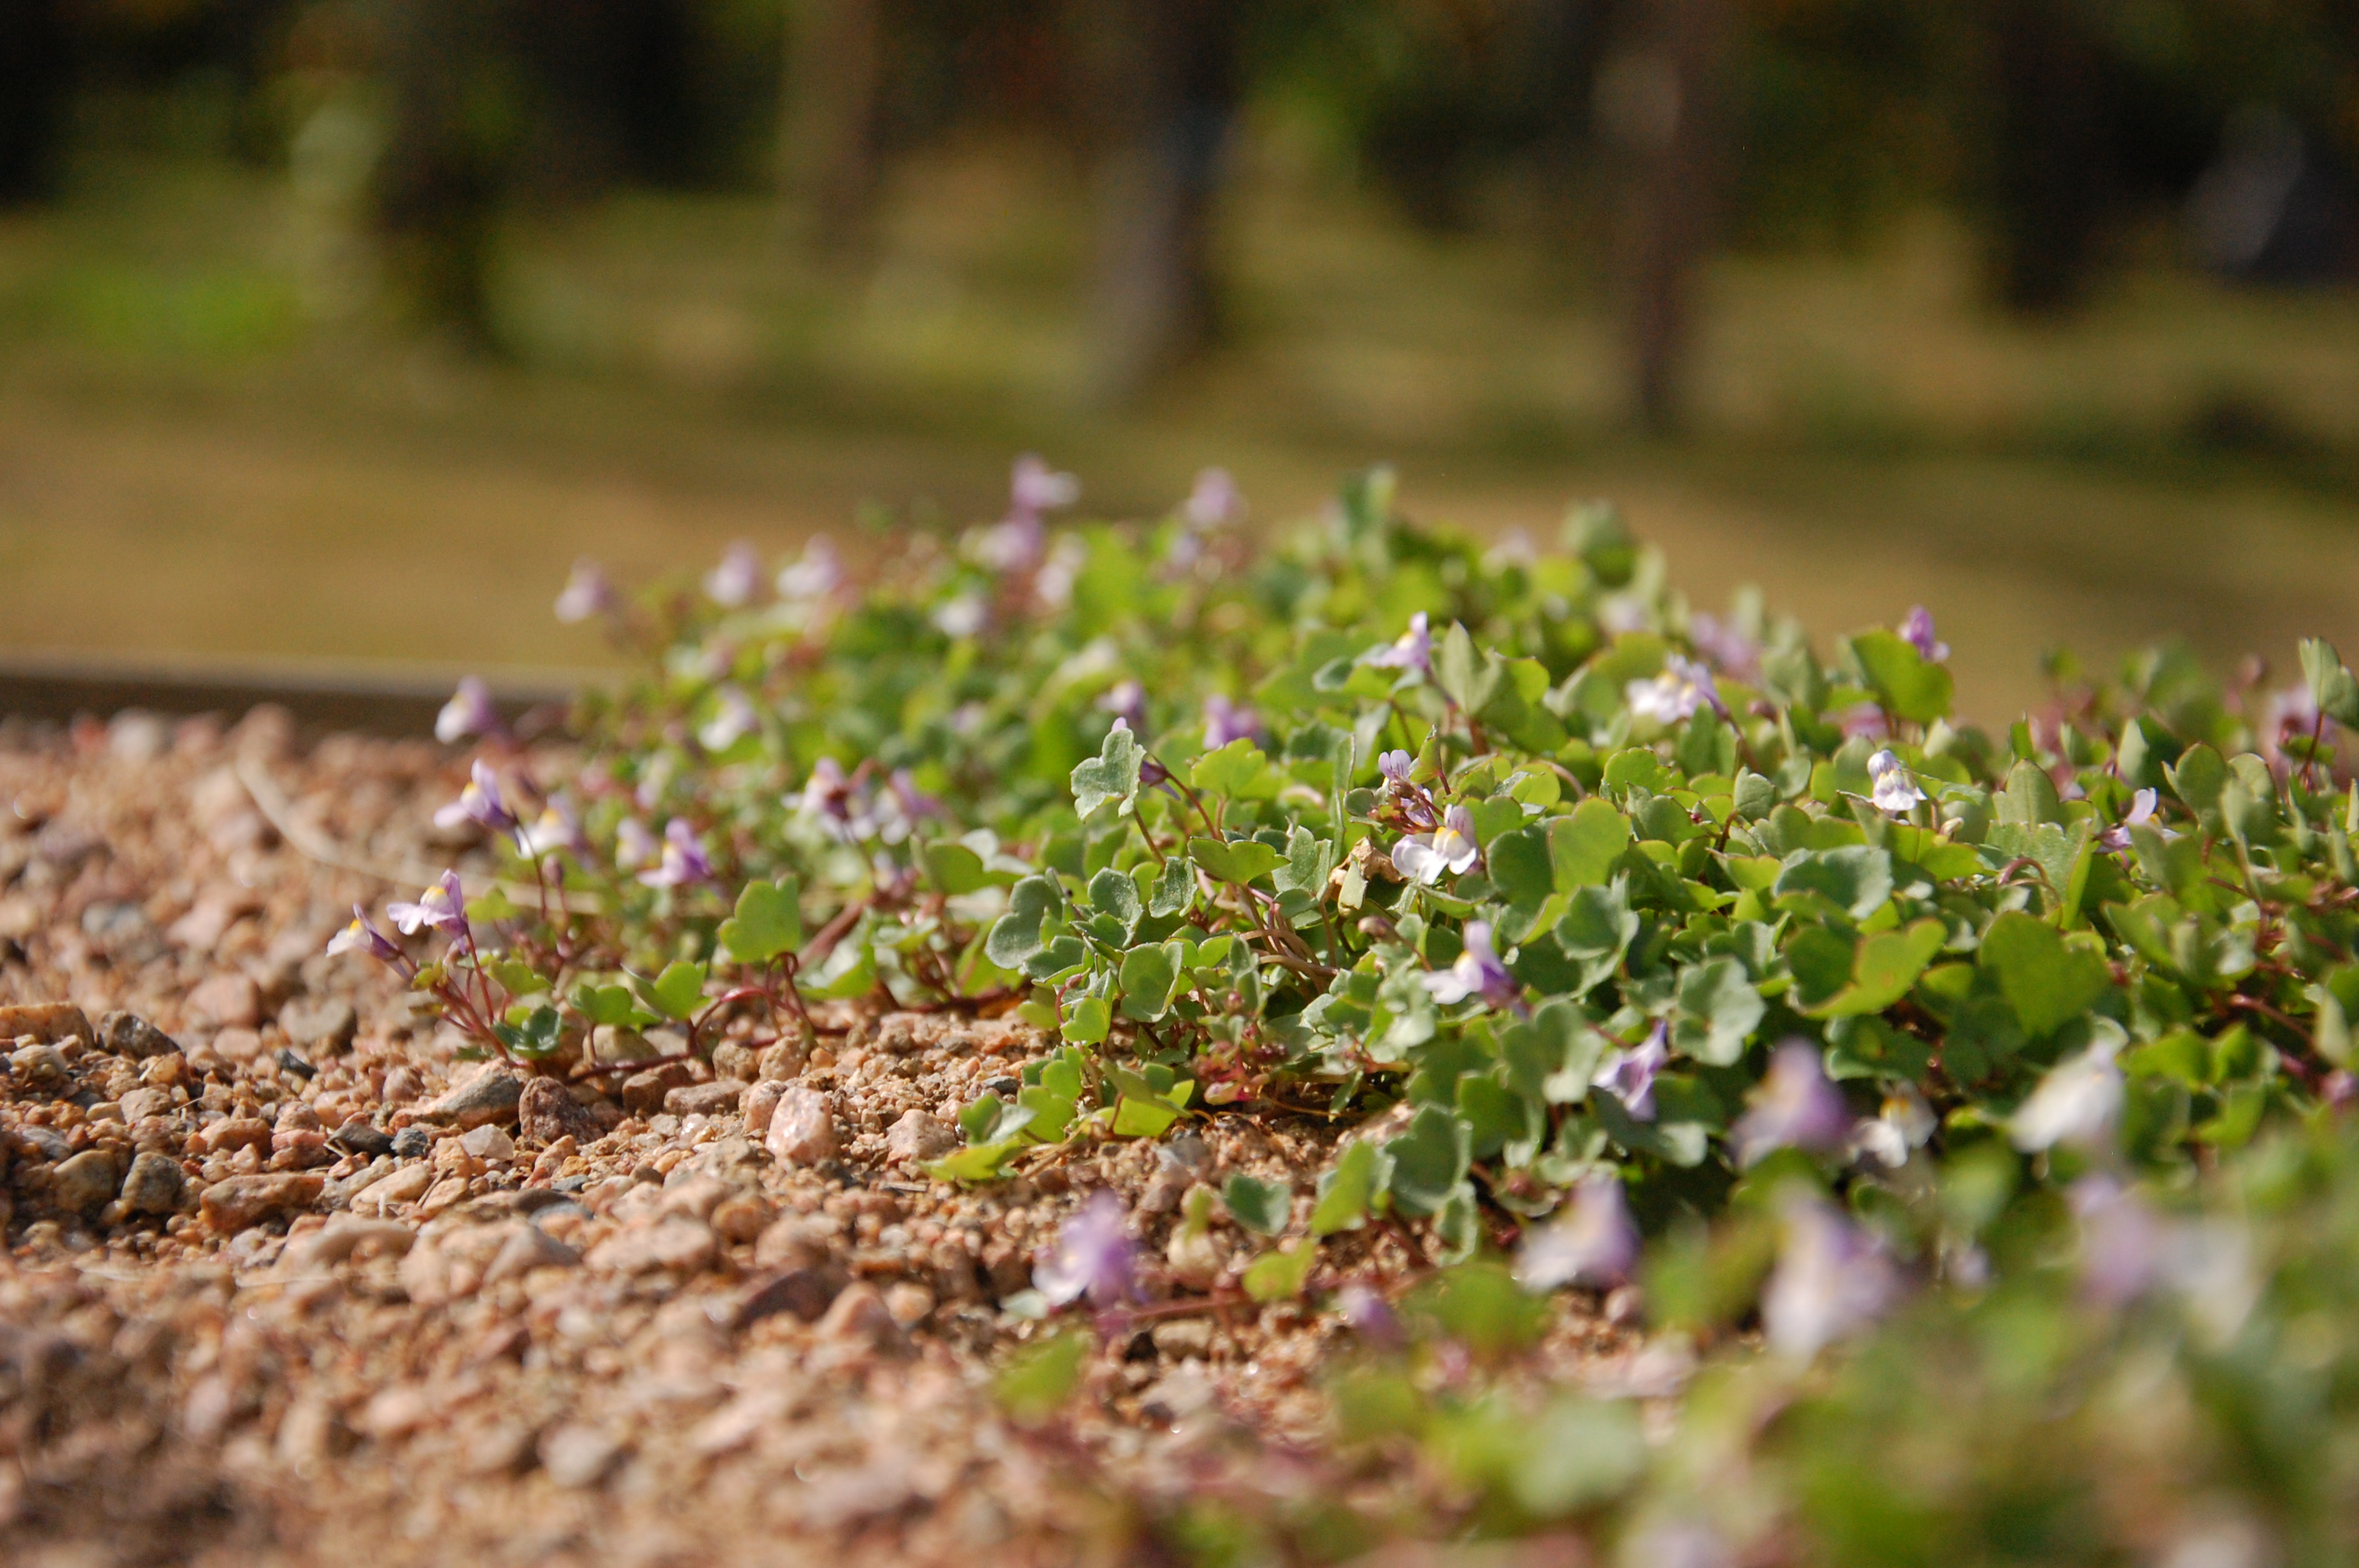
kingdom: Plantae
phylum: Tracheophyta
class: Magnoliopsida
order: Lamiales
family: Plantaginaceae
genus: Cymbalaria
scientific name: Cymbalaria muralis
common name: Ivy-leaved toadflax
